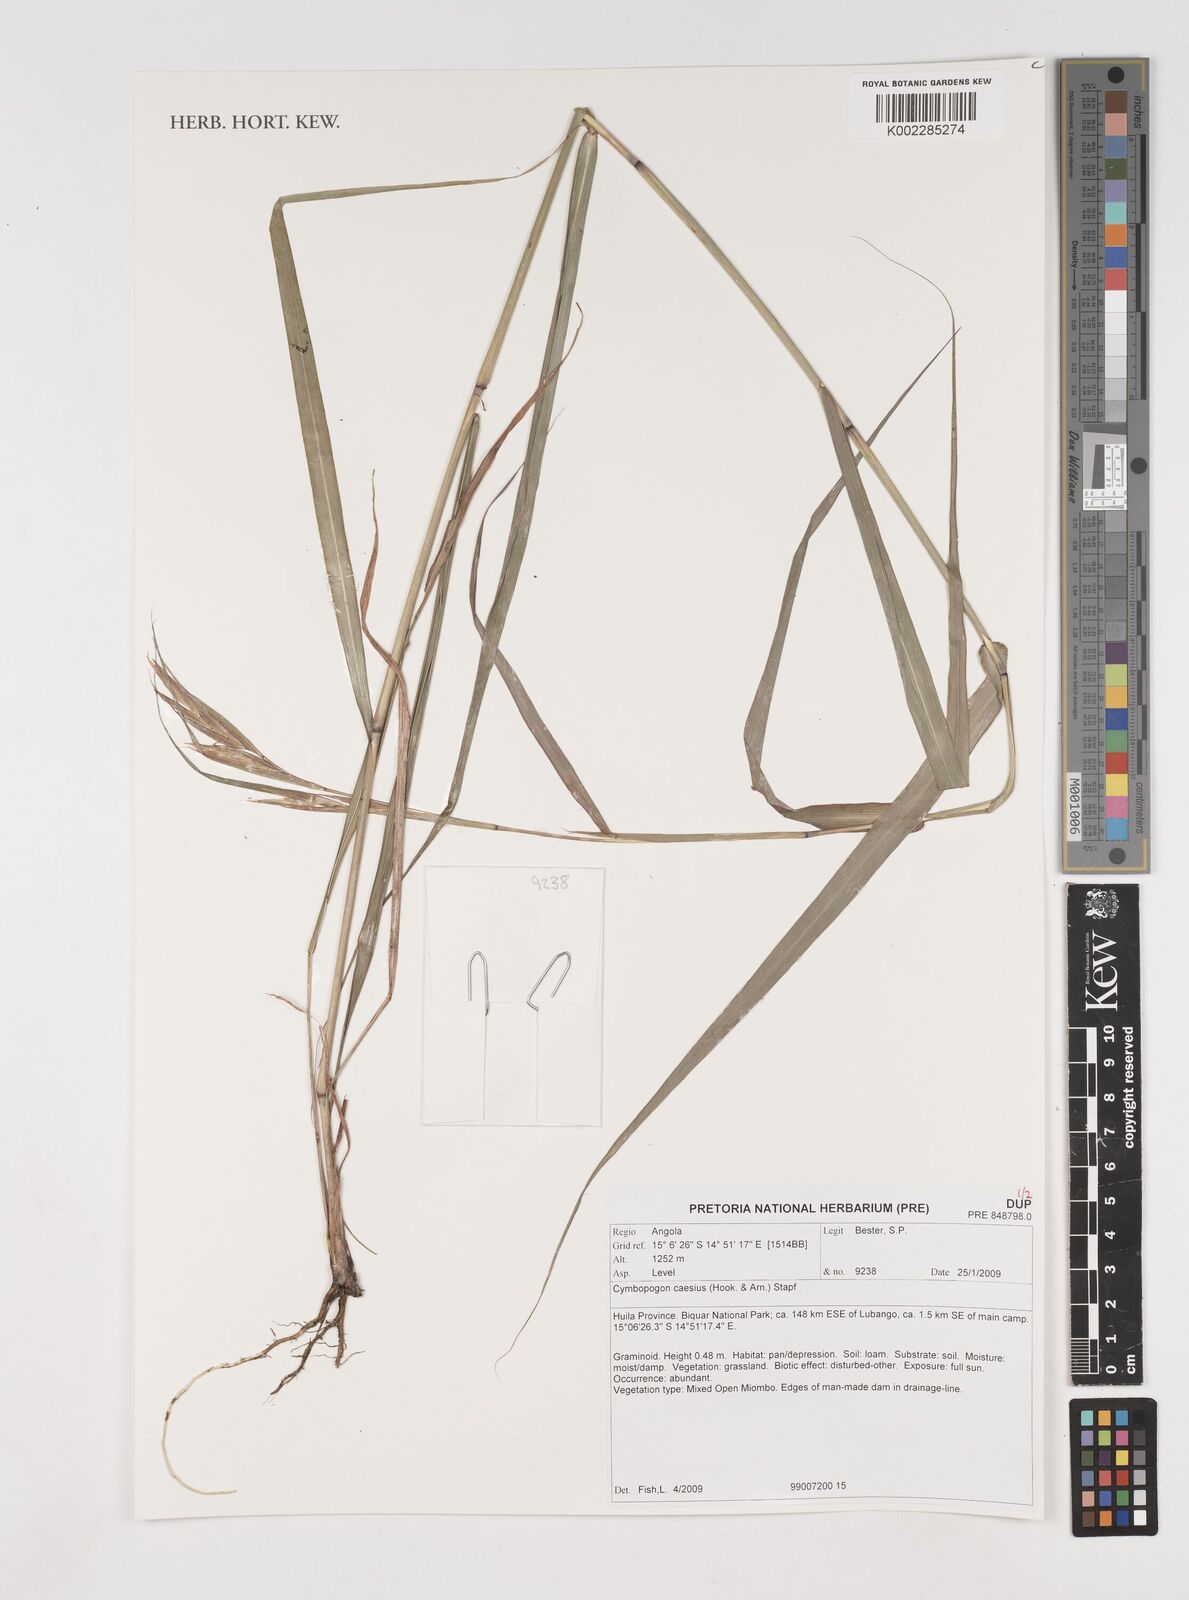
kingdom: Plantae
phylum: Tracheophyta
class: Liliopsida
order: Poales
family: Poaceae
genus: Cymbopogon
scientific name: Cymbopogon caesius
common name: Kachi grass
